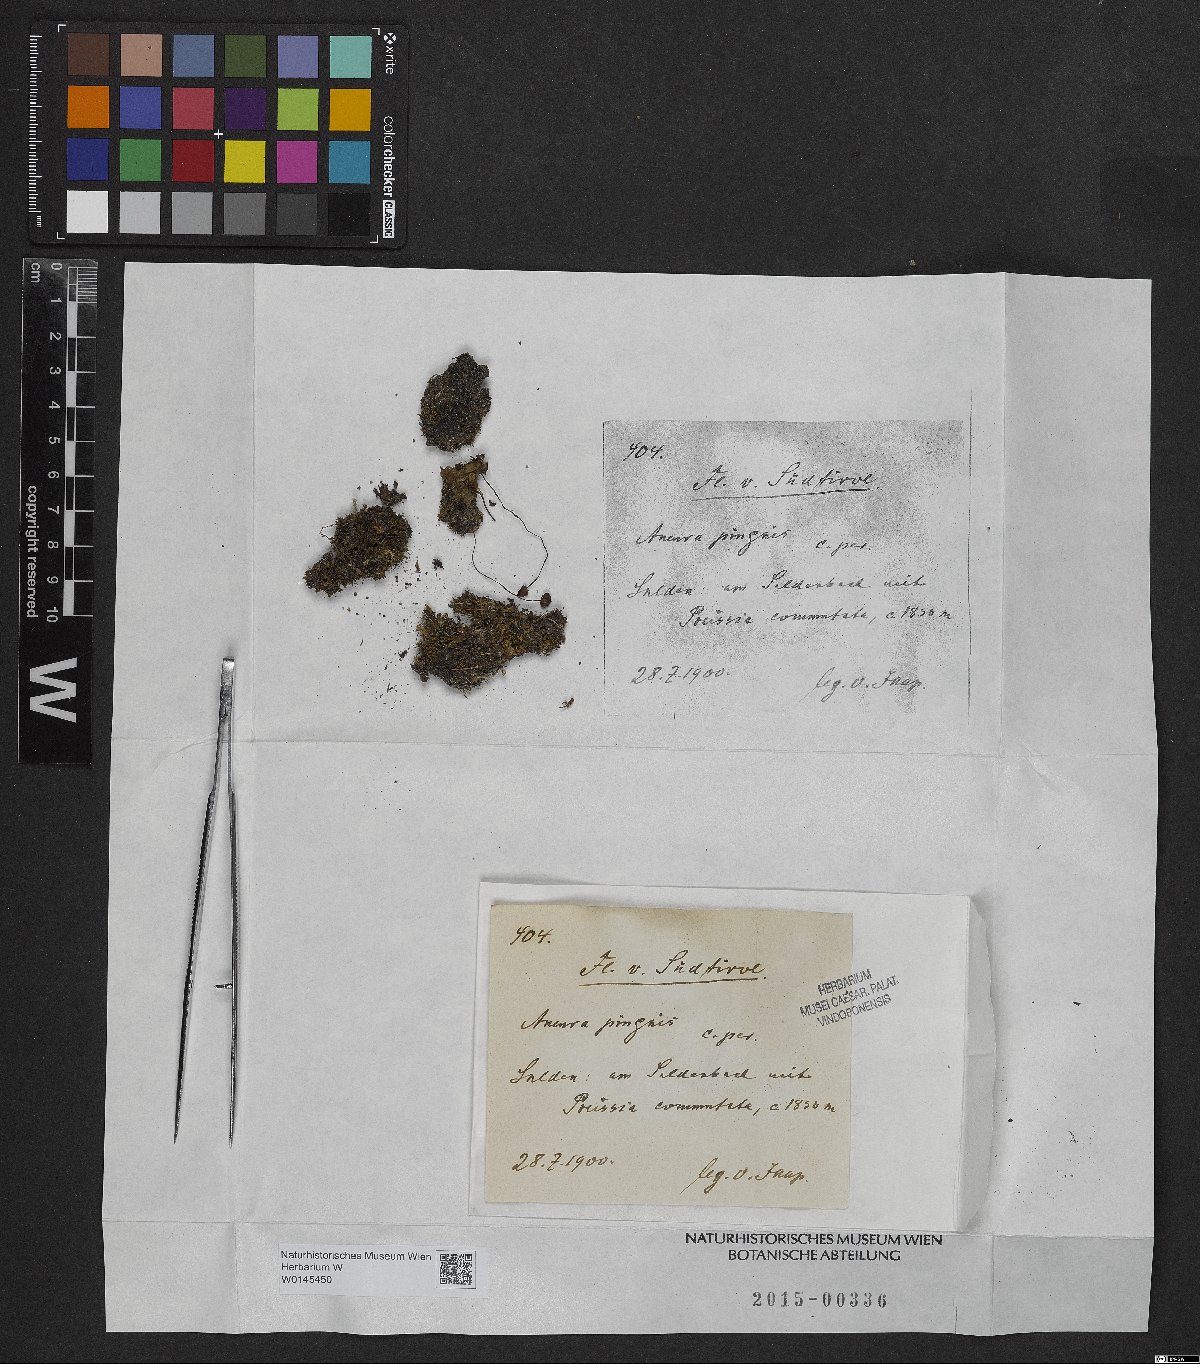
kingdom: Plantae
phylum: Marchantiophyta
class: Jungermanniopsida
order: Metzgeriales
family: Aneuraceae
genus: Aneura
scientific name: Aneura pinguis
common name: Common greasewort
